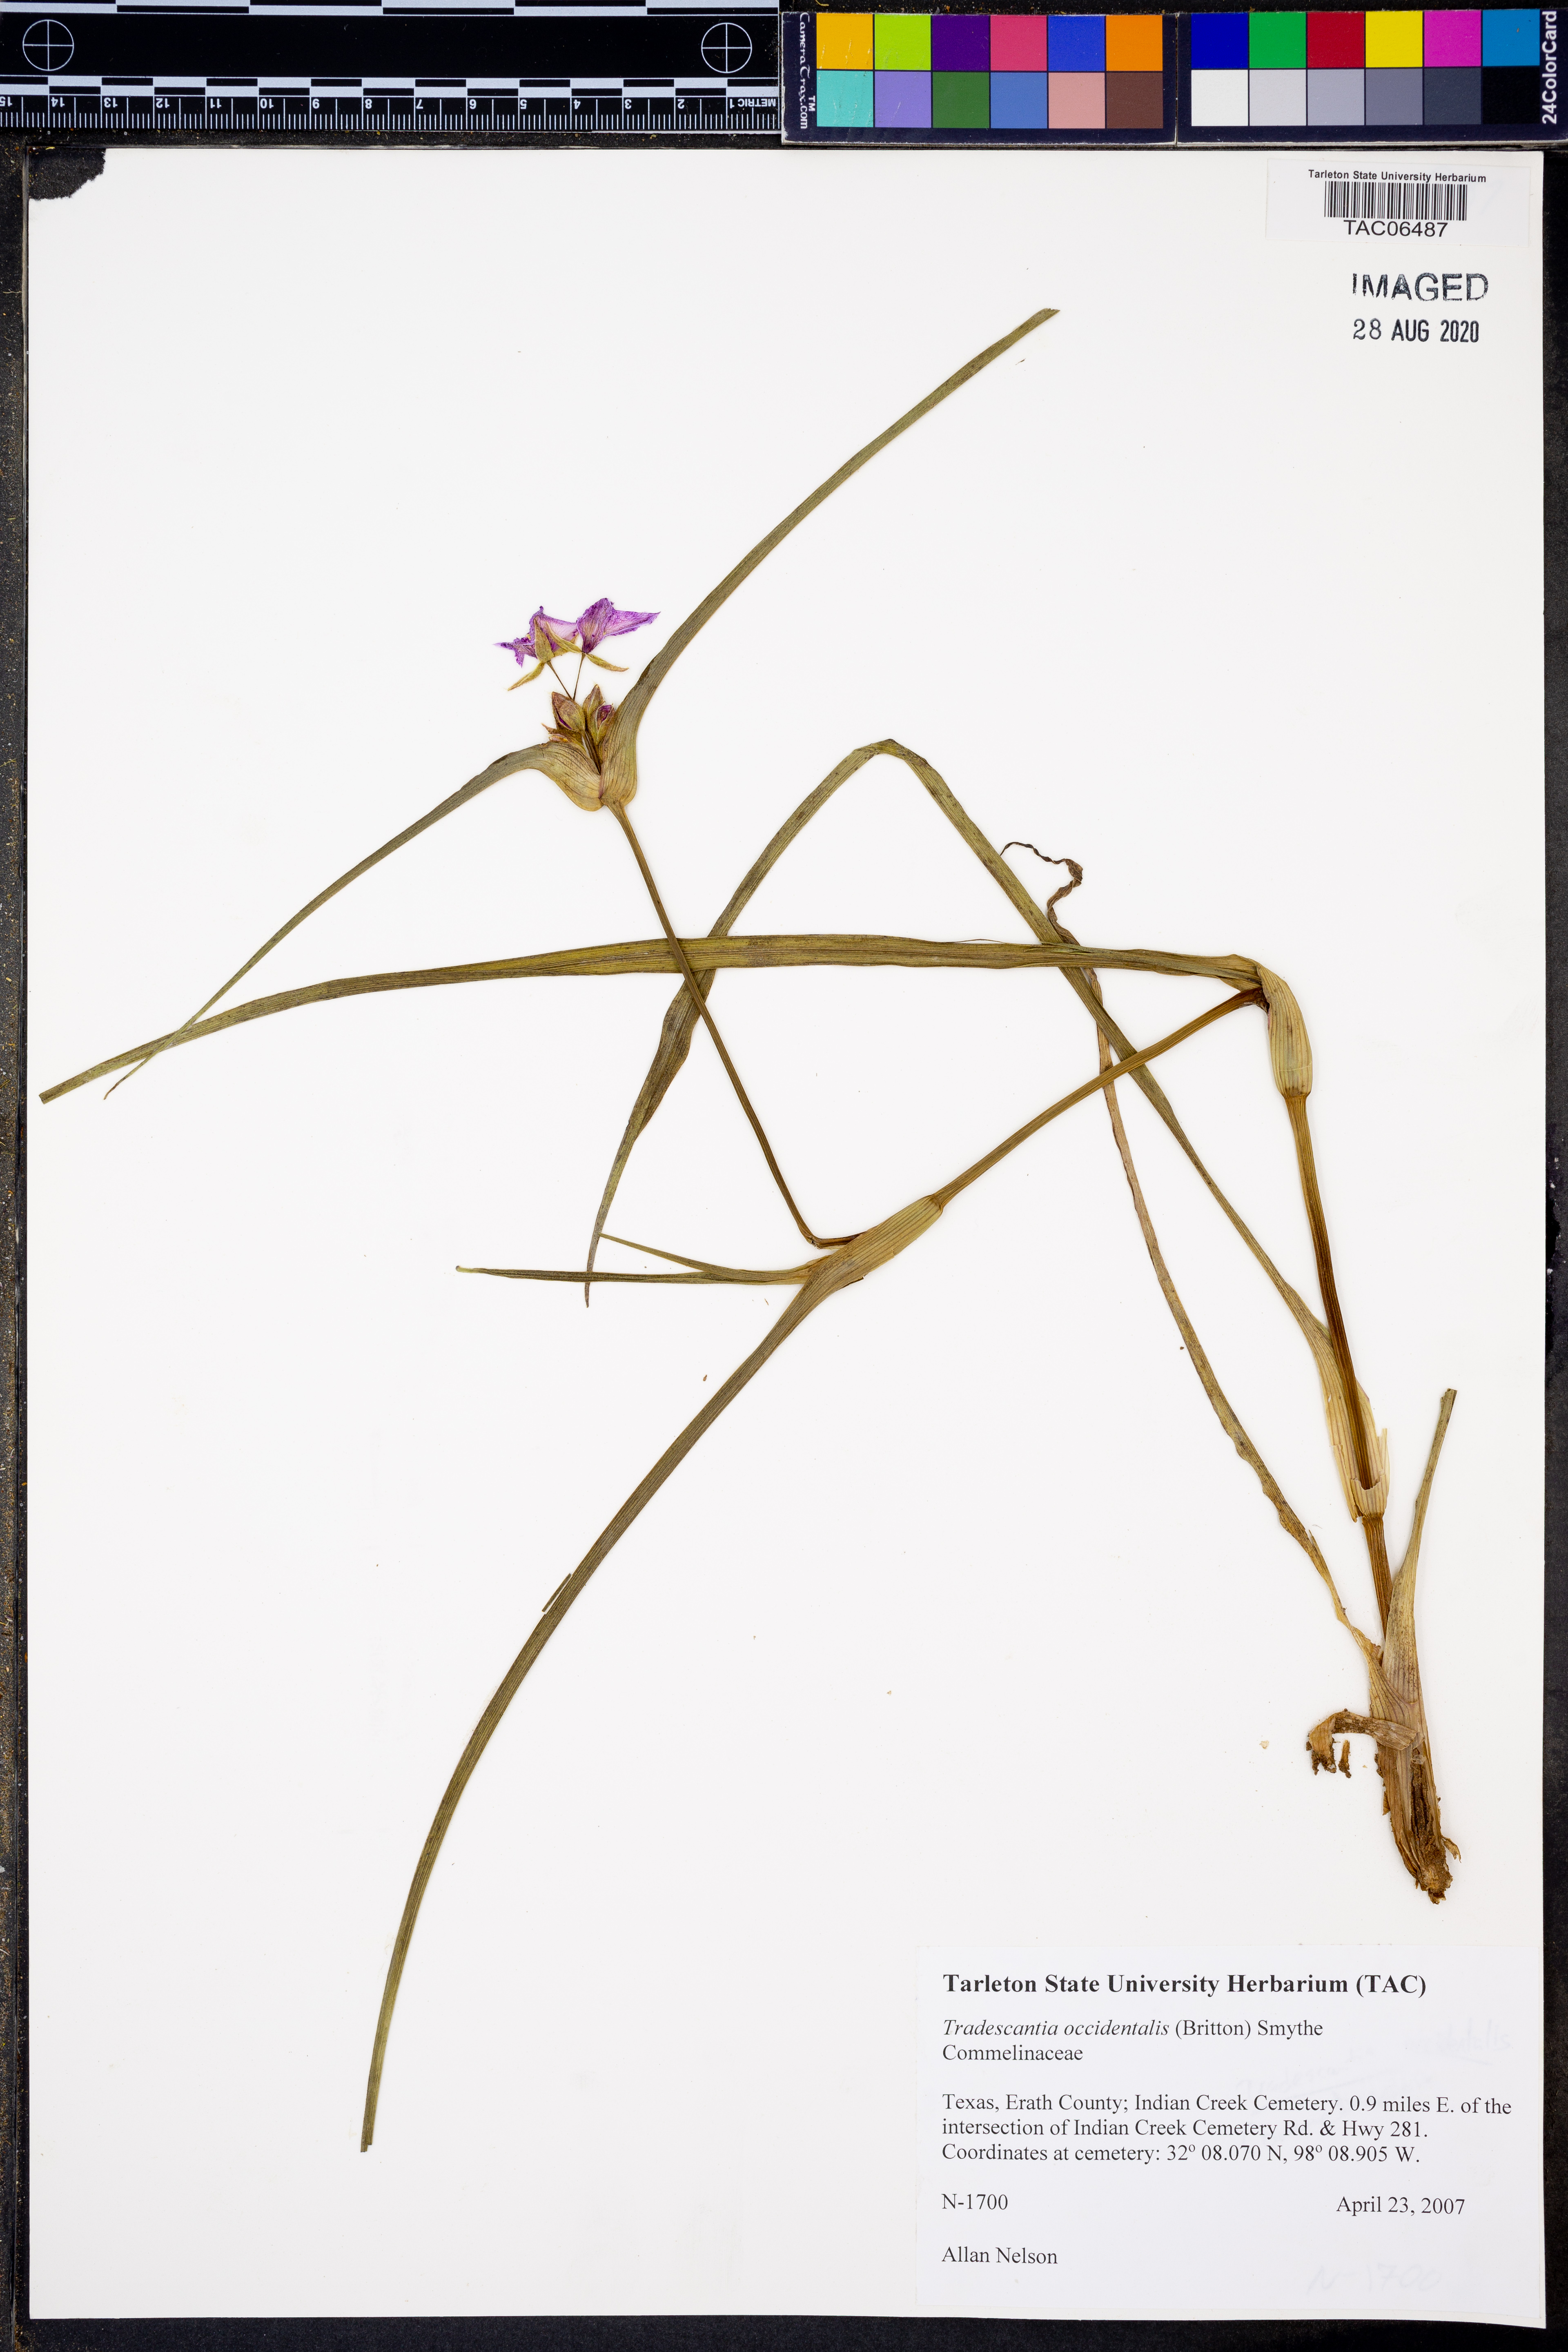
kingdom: Plantae
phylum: Tracheophyta
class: Liliopsida
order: Commelinales
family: Commelinaceae
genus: Tradescantia
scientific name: Tradescantia occidentalis
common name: Prairie spiderwort
